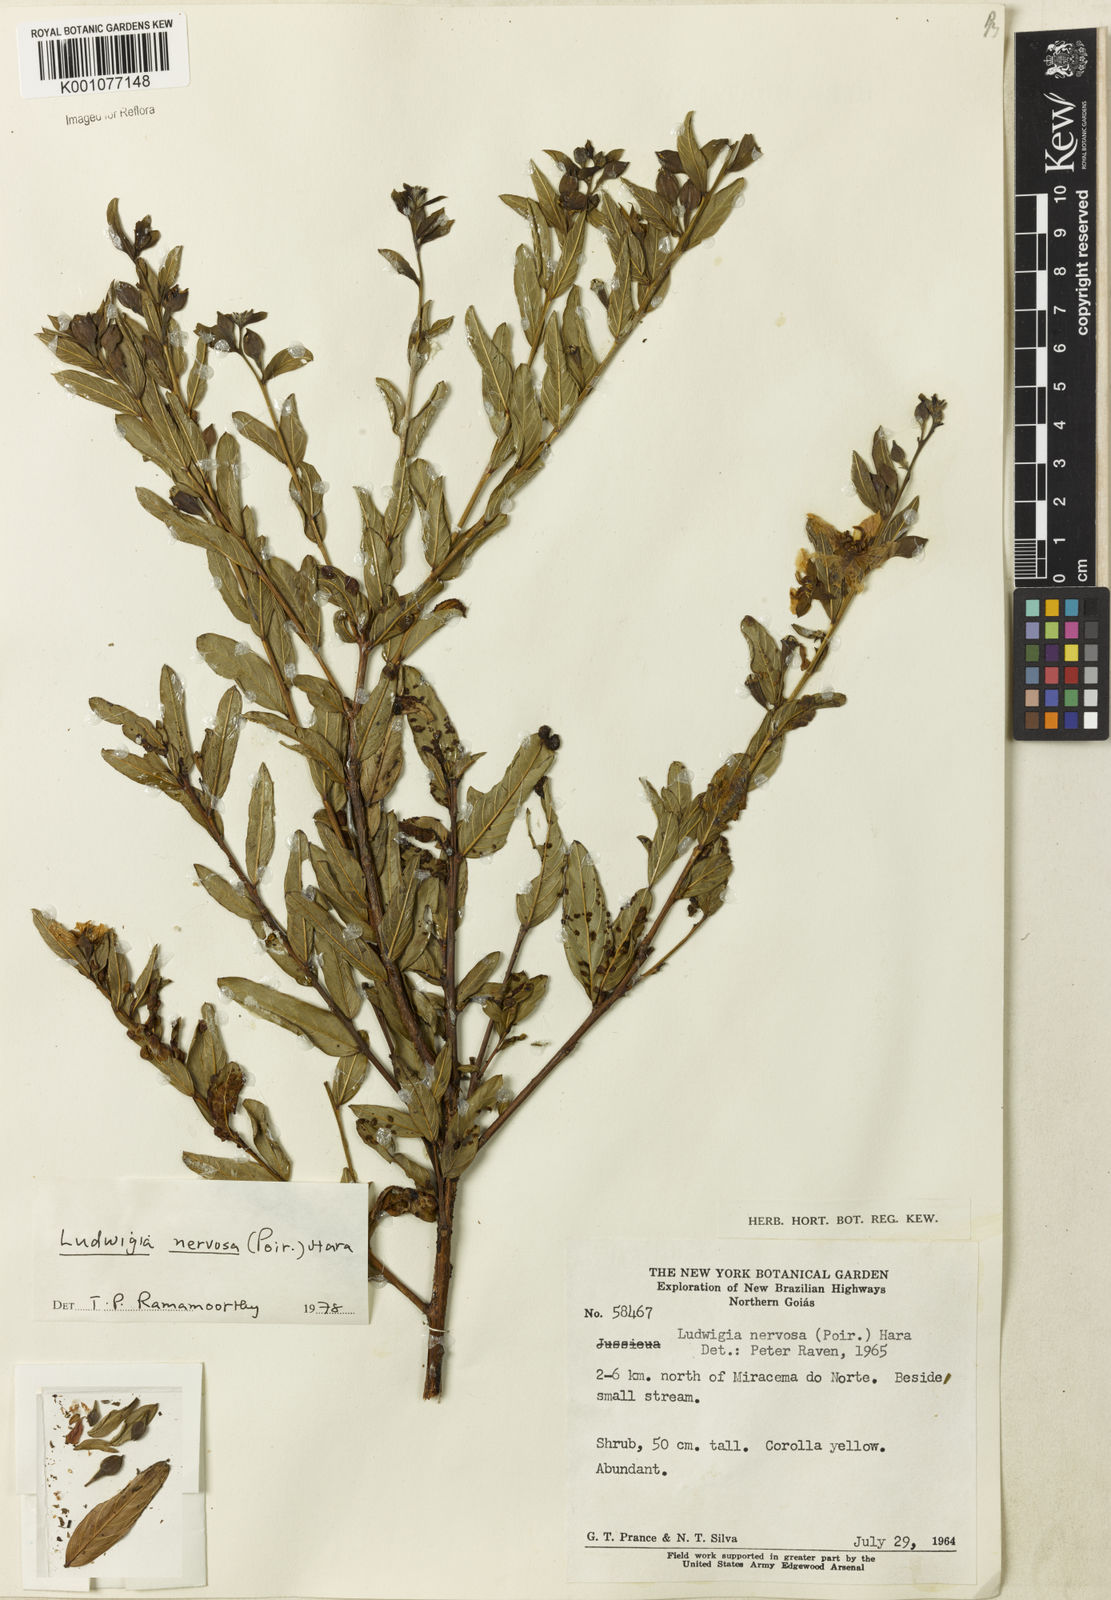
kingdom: Plantae
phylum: Tracheophyta
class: Magnoliopsida
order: Myrtales
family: Onagraceae
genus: Ludwigia
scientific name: Ludwigia nervosa
